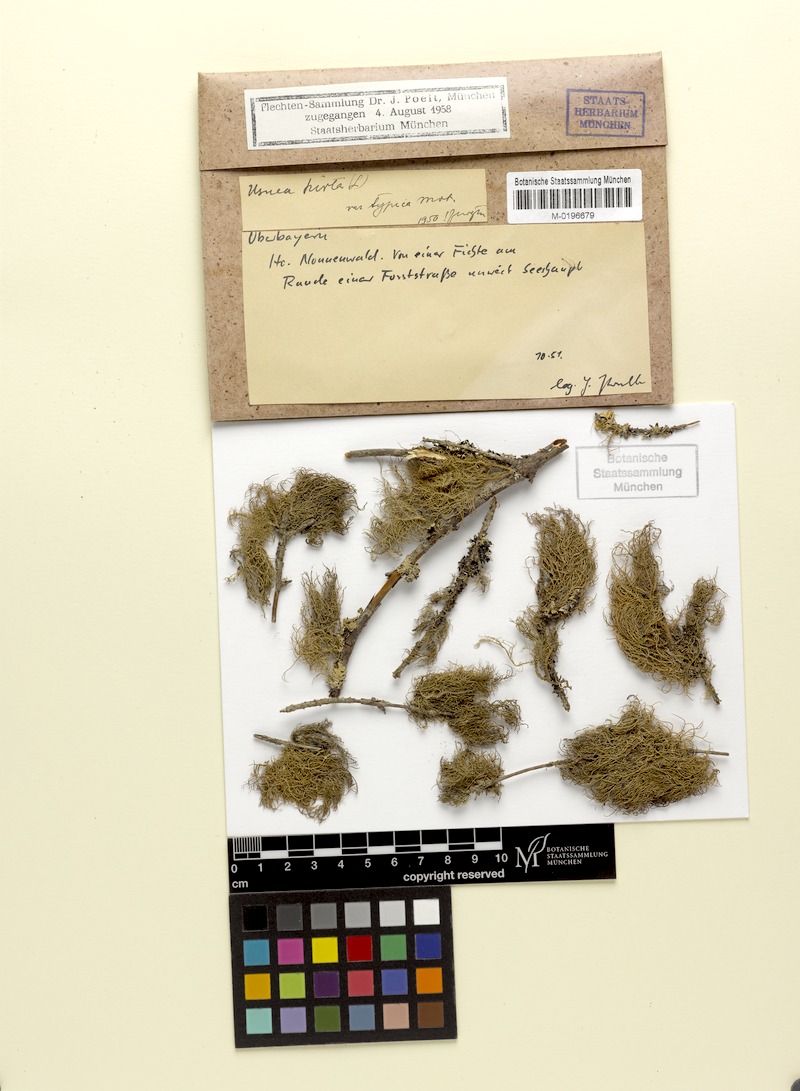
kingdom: Fungi
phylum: Ascomycota
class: Lecanoromycetes
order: Lecanorales
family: Parmeliaceae
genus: Usnea
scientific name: Usnea hirta
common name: Bristly beard lichen
